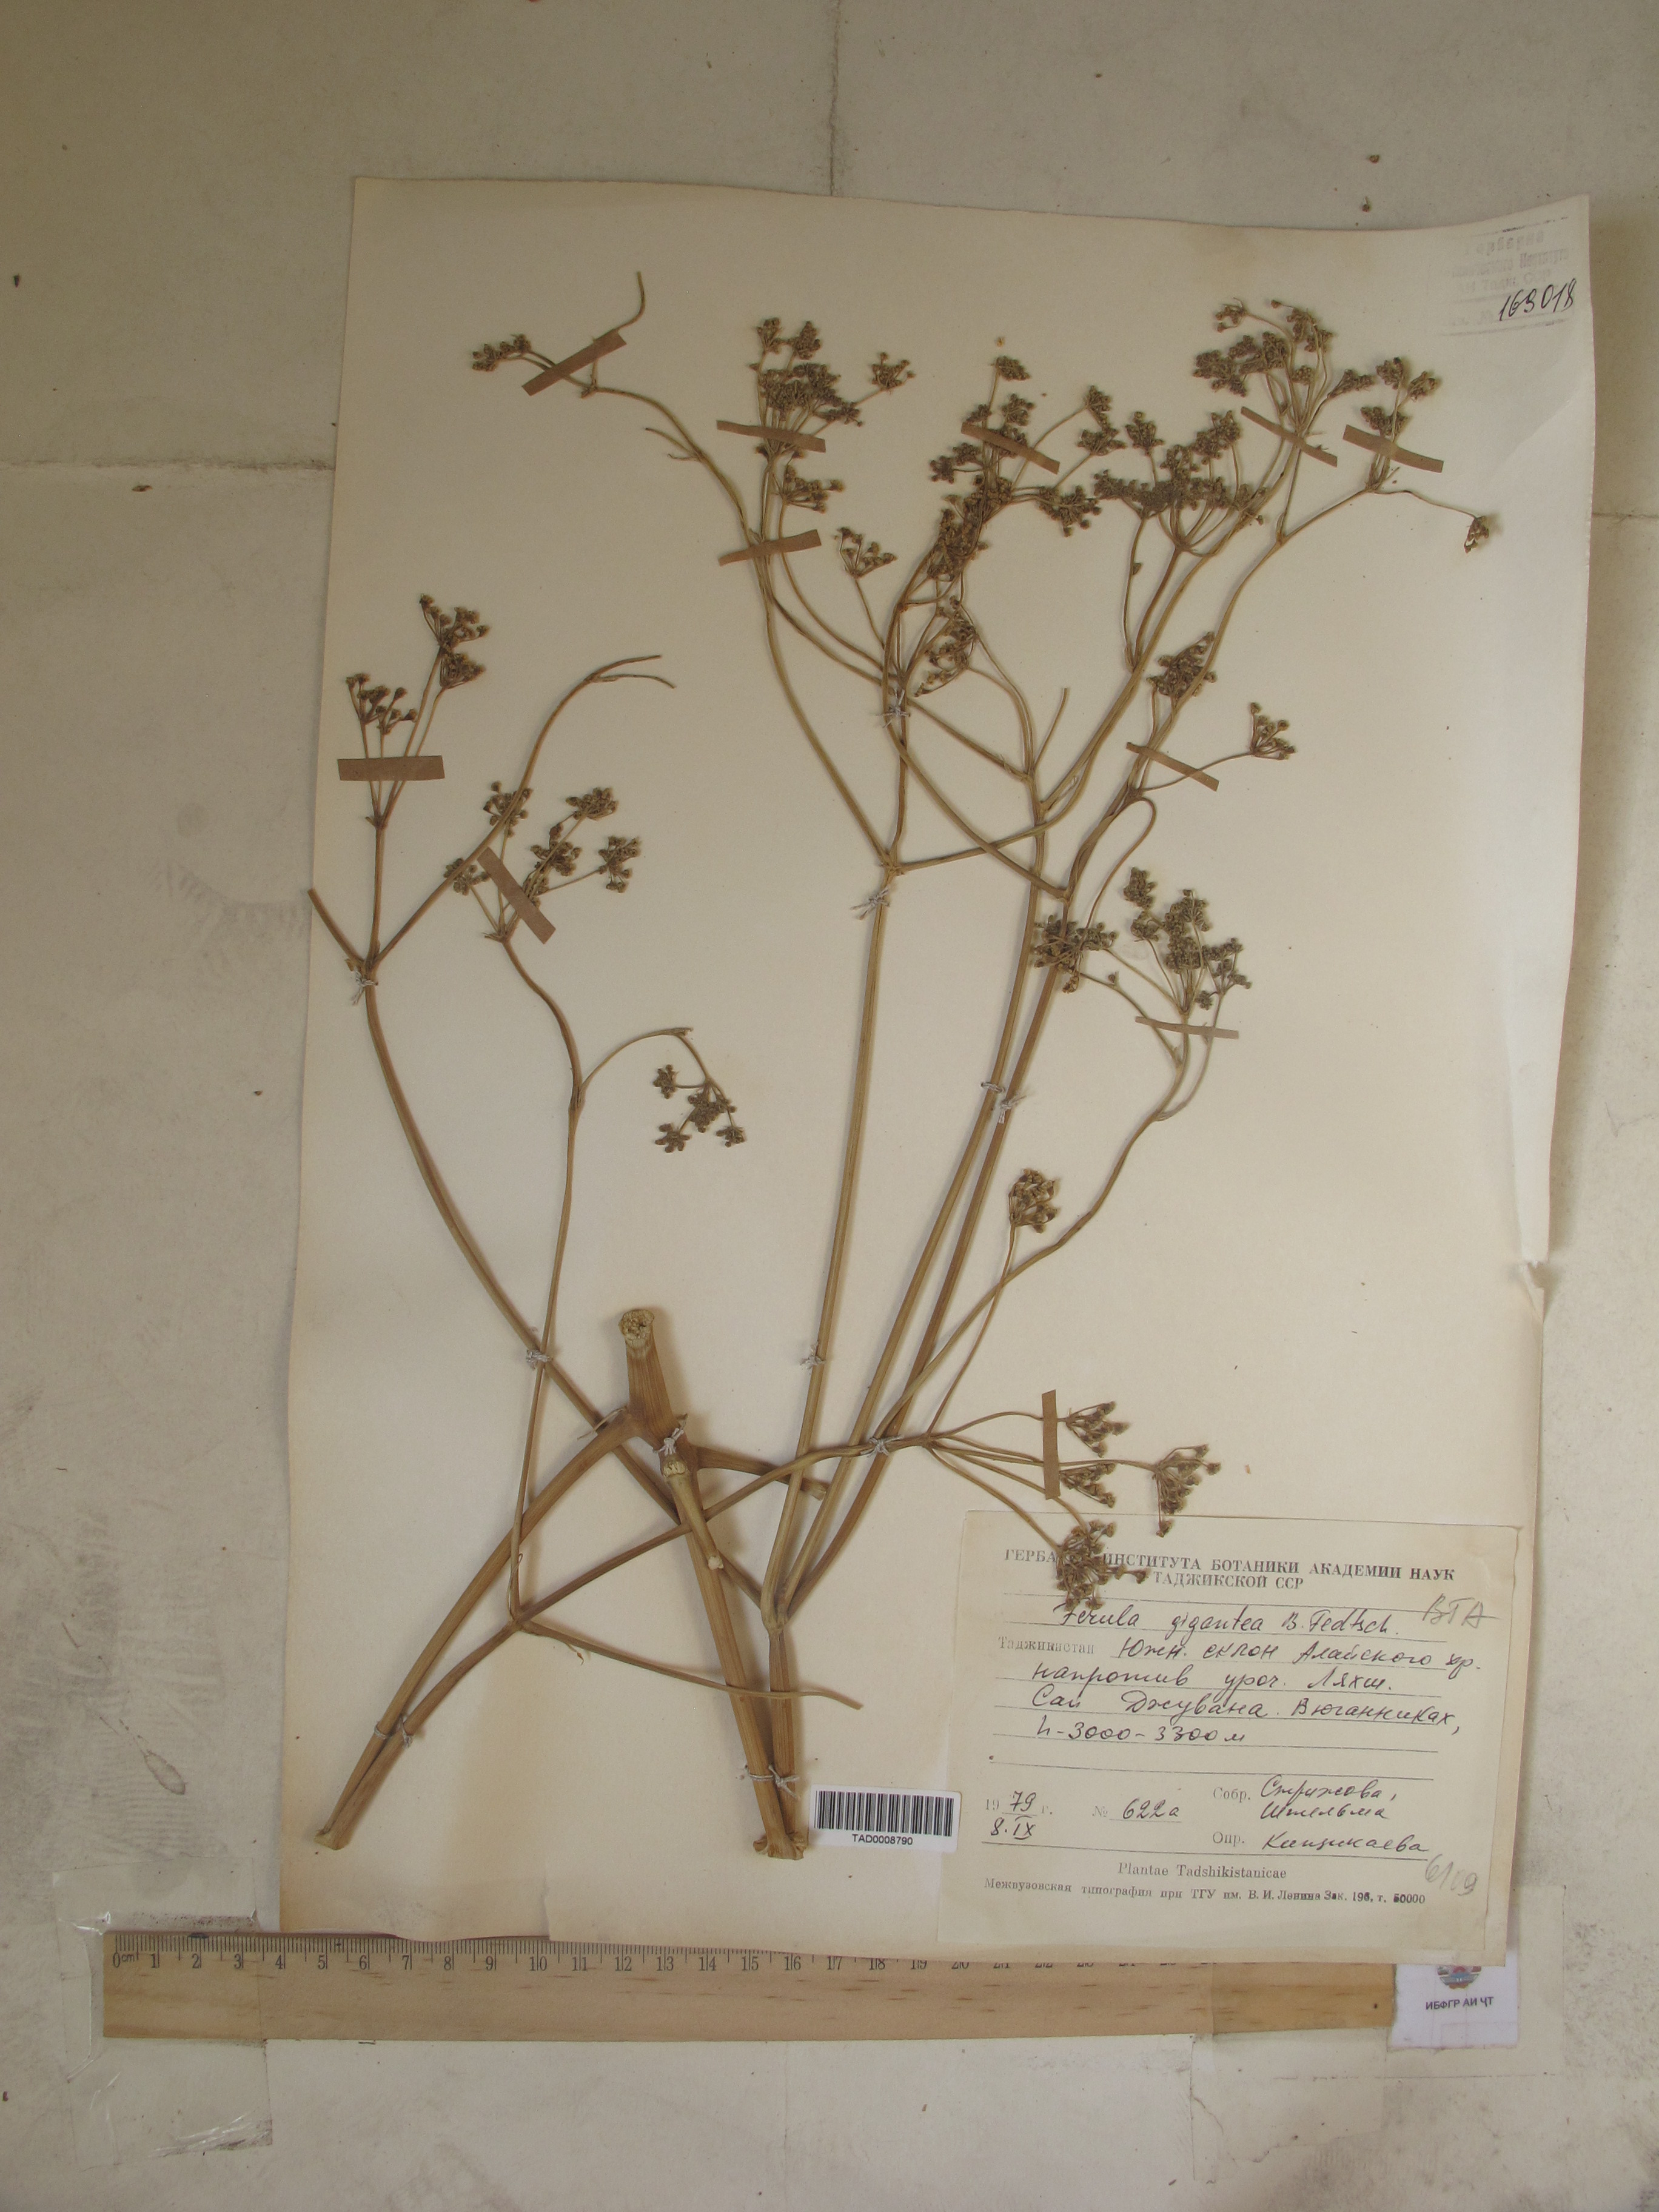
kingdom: Plantae
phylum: Tracheophyta
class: Magnoliopsida
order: Apiales
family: Apiaceae
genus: Ferula
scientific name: Ferula gigantea
